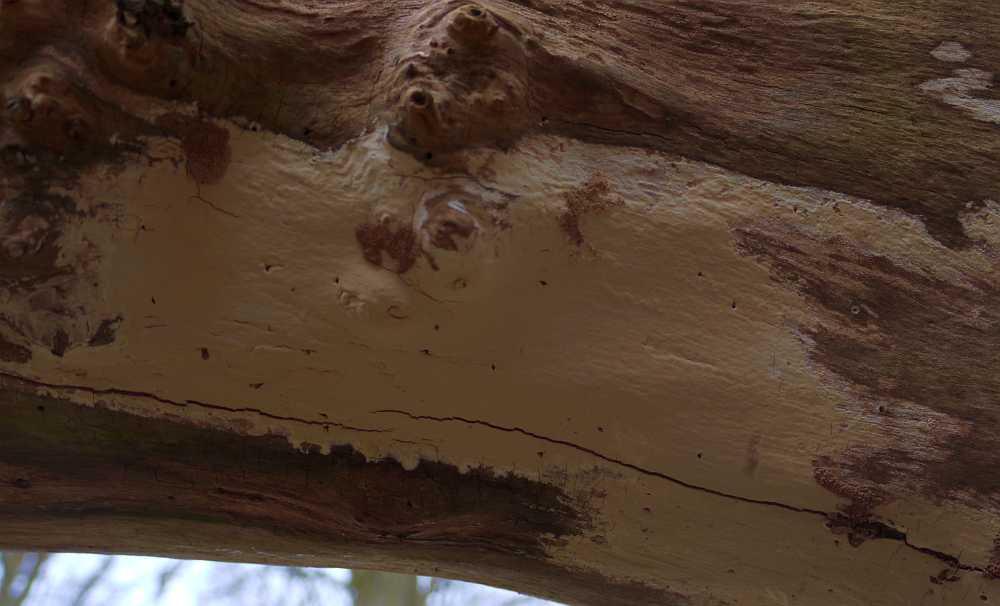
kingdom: Fungi
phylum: Basidiomycota
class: Agaricomycetes
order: Russulales
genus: Gloeohypochnicium
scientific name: Gloeohypochnicium analogum
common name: frugt-kalkskind
